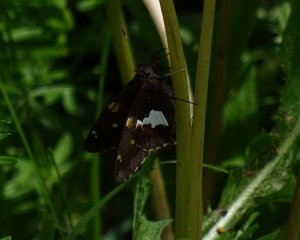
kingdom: Animalia
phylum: Arthropoda
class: Insecta
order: Lepidoptera
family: Hesperiidae
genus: Epargyreus
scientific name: Epargyreus clarus
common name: Silver-spotted Skipper
